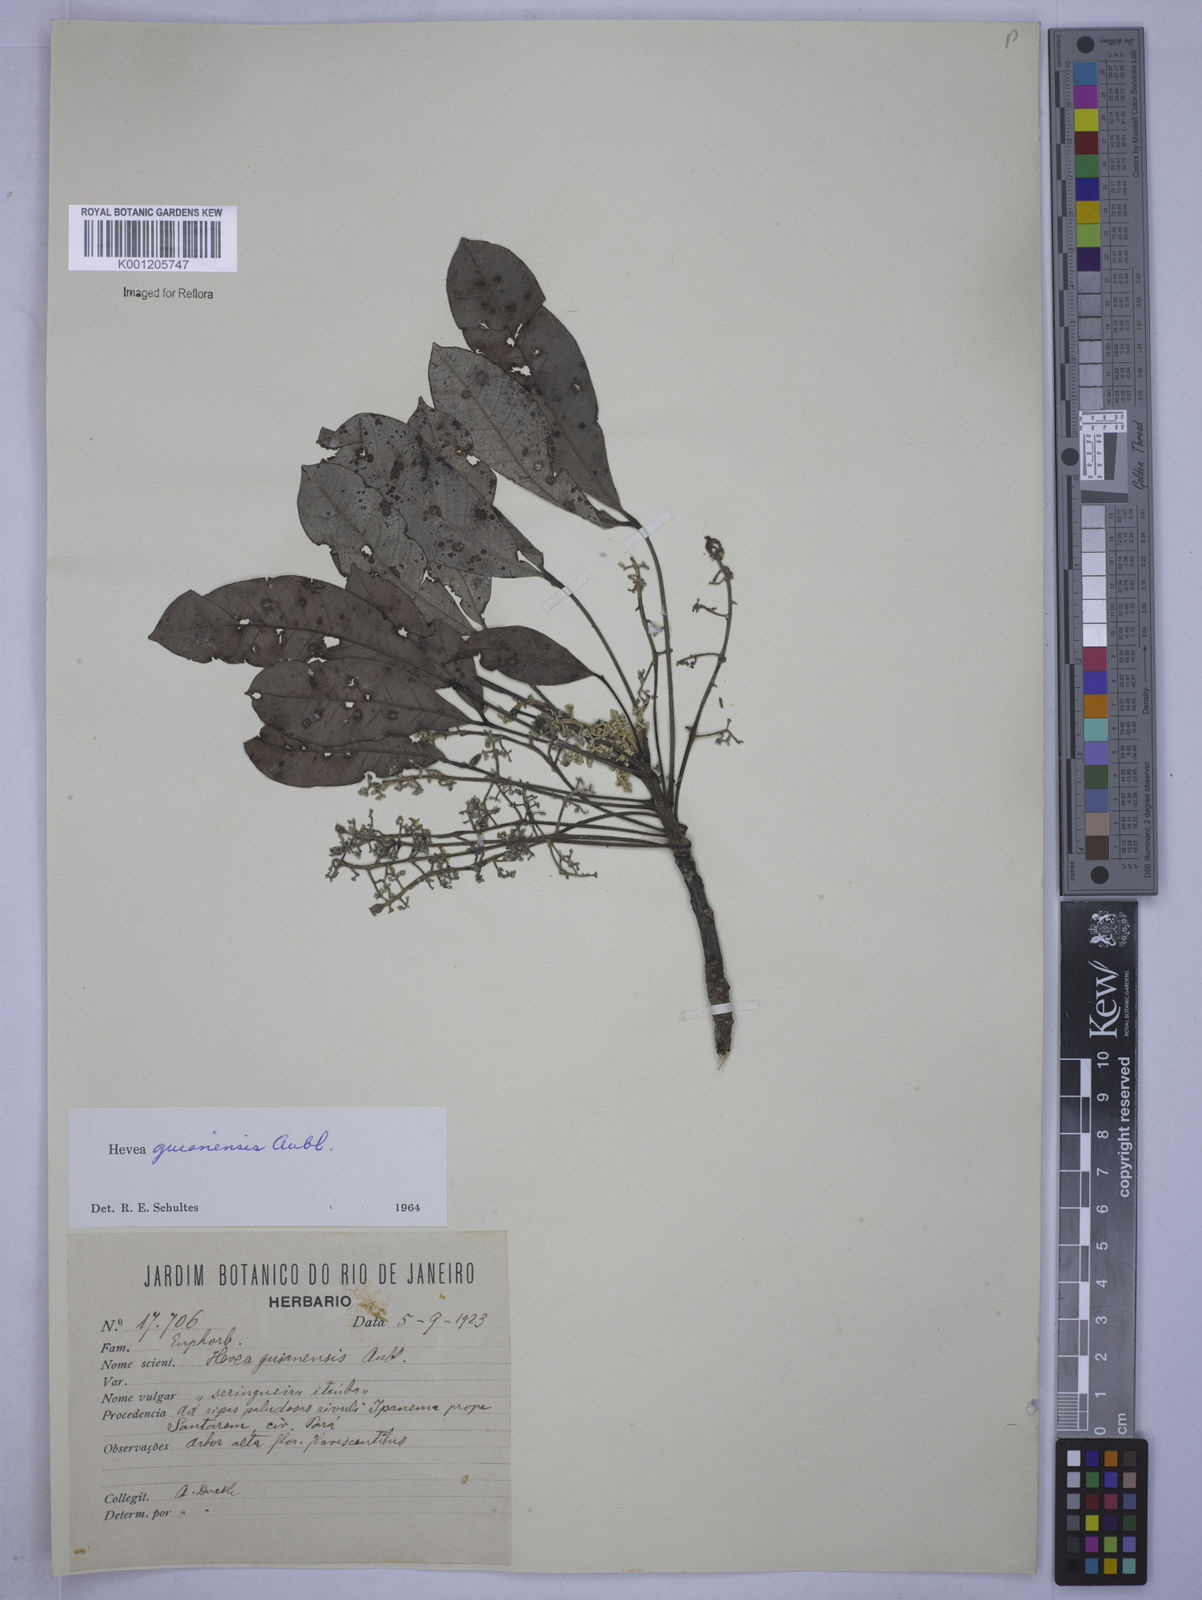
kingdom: Plantae
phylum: Tracheophyta
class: Magnoliopsida
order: Malpighiales
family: Euphorbiaceae
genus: Hevea
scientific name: Hevea guianensis
